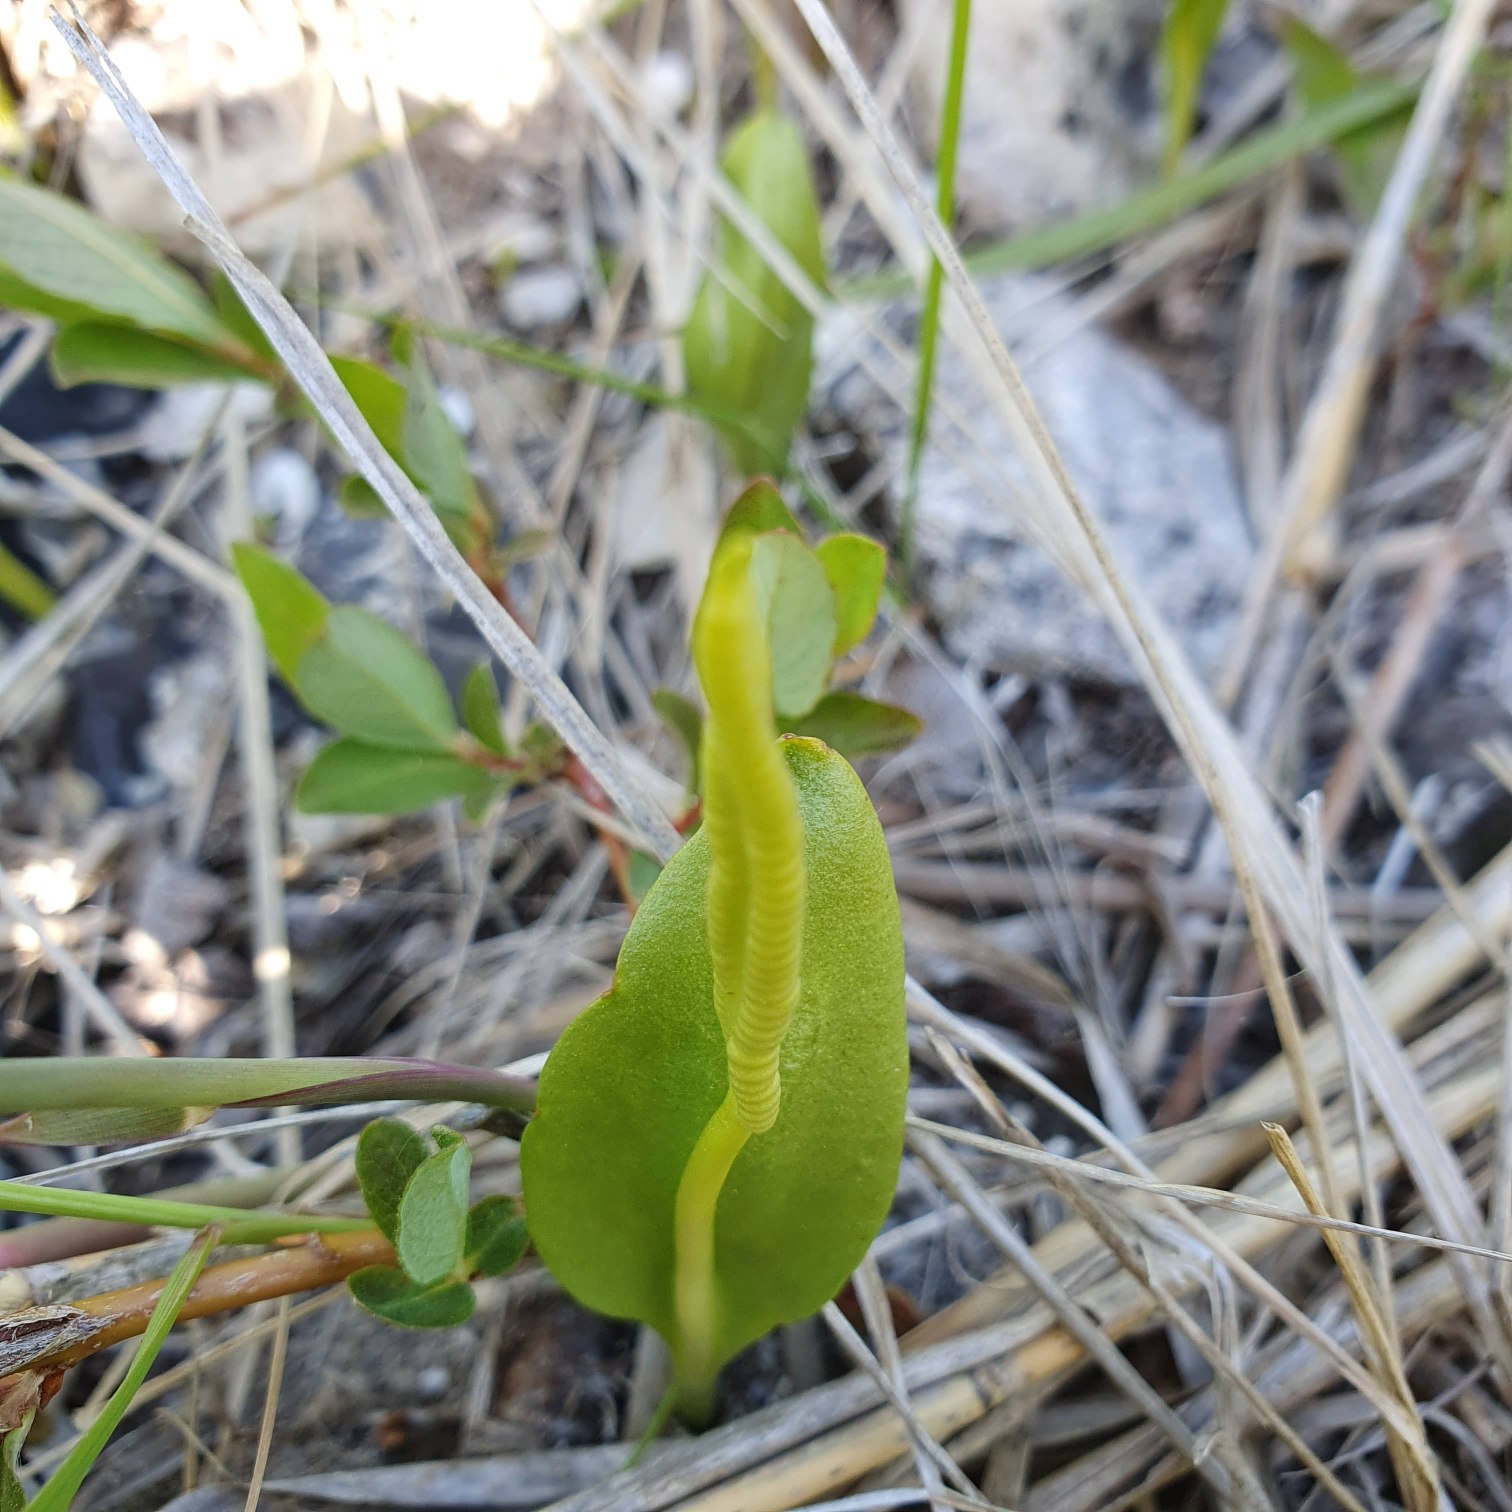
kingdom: Plantae
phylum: Tracheophyta
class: Polypodiopsida
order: Ophioglossales
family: Ophioglossaceae
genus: Ophioglossum
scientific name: Ophioglossum vulgatum
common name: Slangetunge
